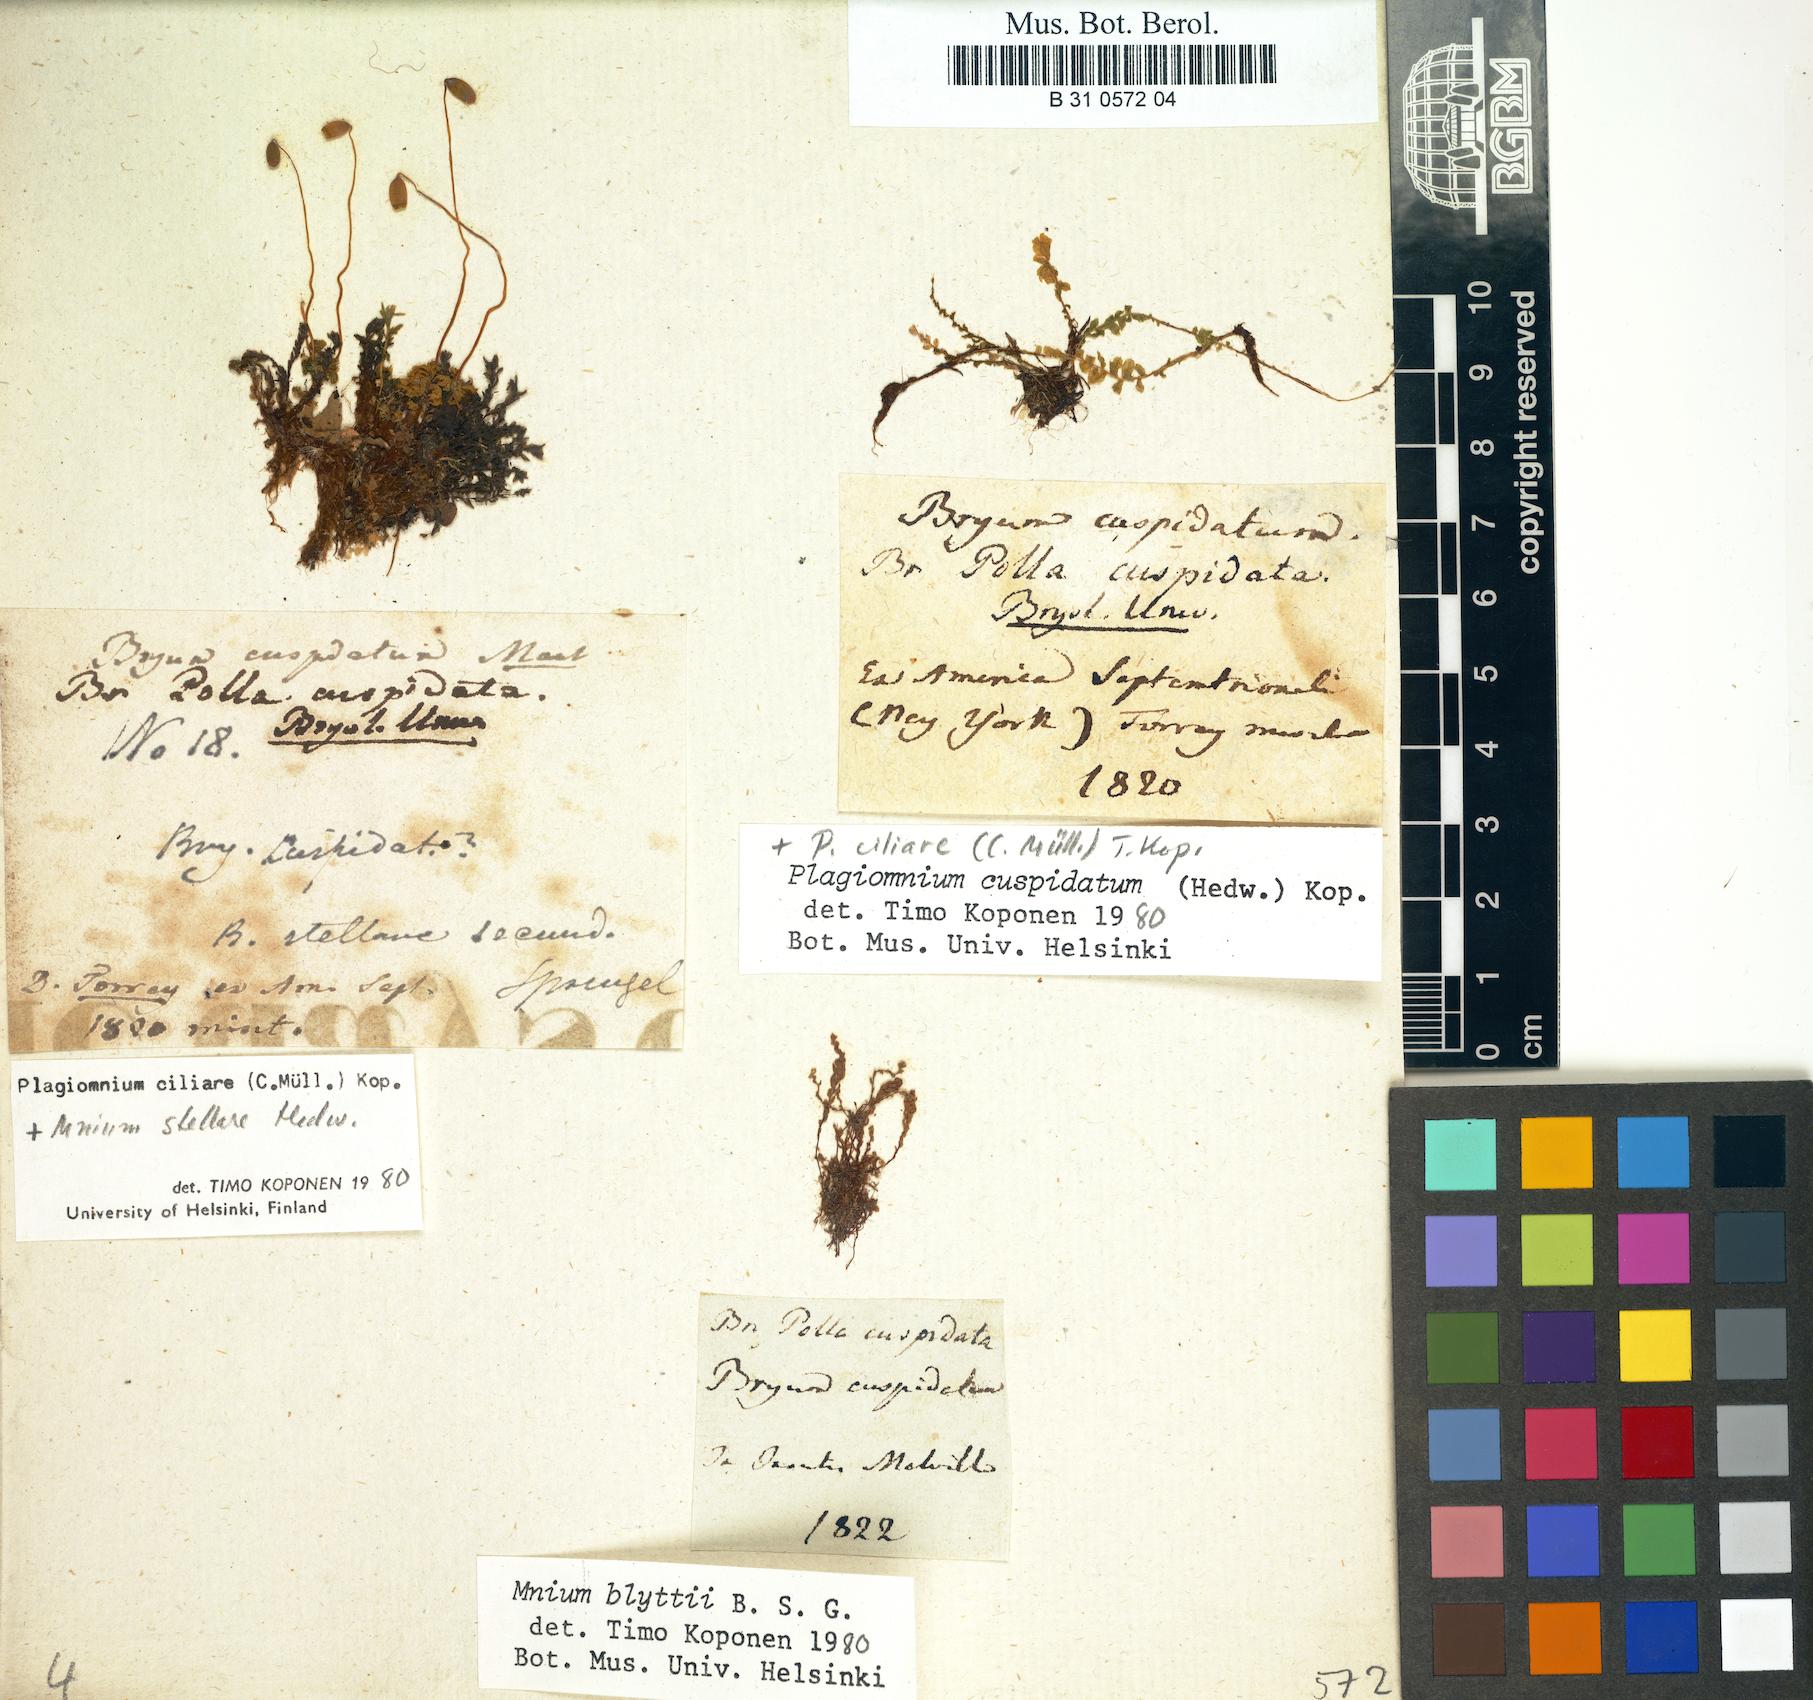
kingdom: Plantae
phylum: Bryophyta
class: Bryopsida
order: Bryales
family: Mniaceae
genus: Plagiomnium
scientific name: Plagiomnium cuspidatum
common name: Woodsy leafy moss
